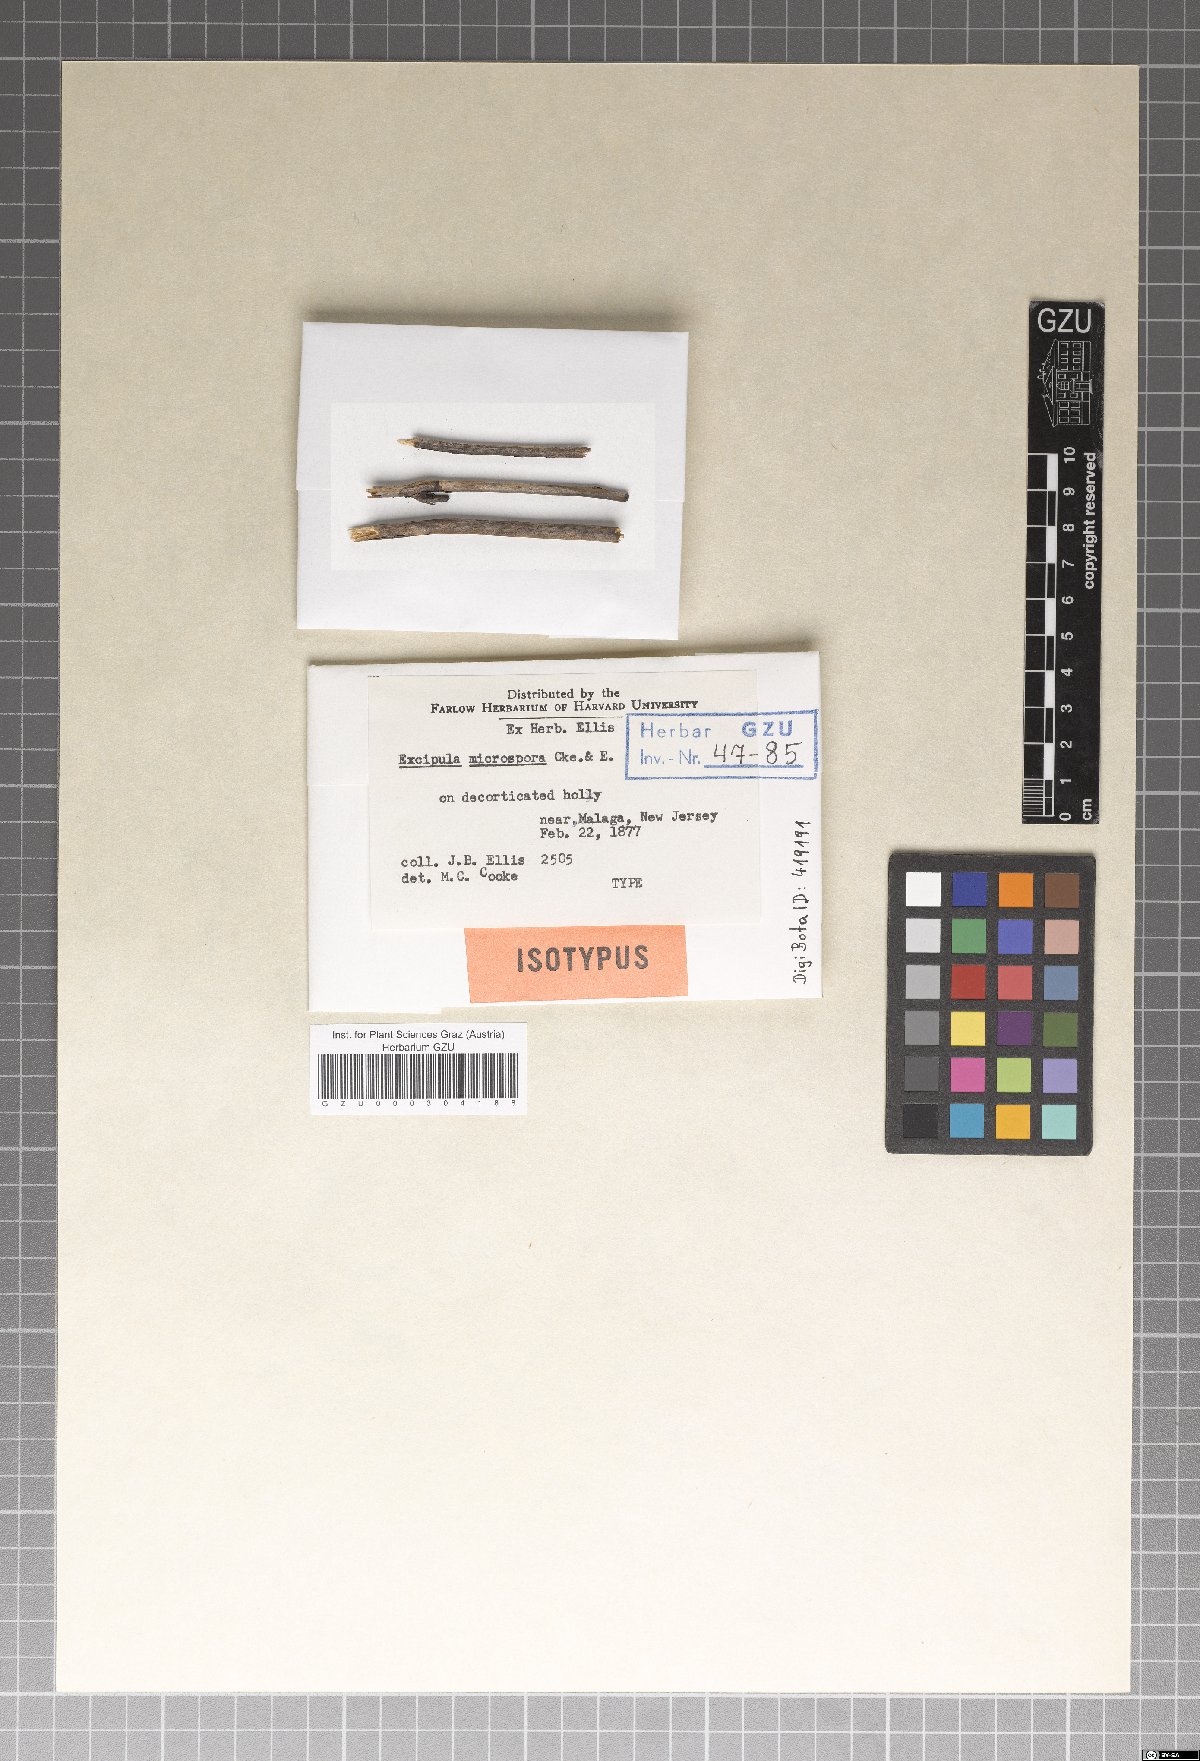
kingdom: Fungi
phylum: Ascomycota
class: Leotiomycetes
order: Helotiales
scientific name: Helotiales
